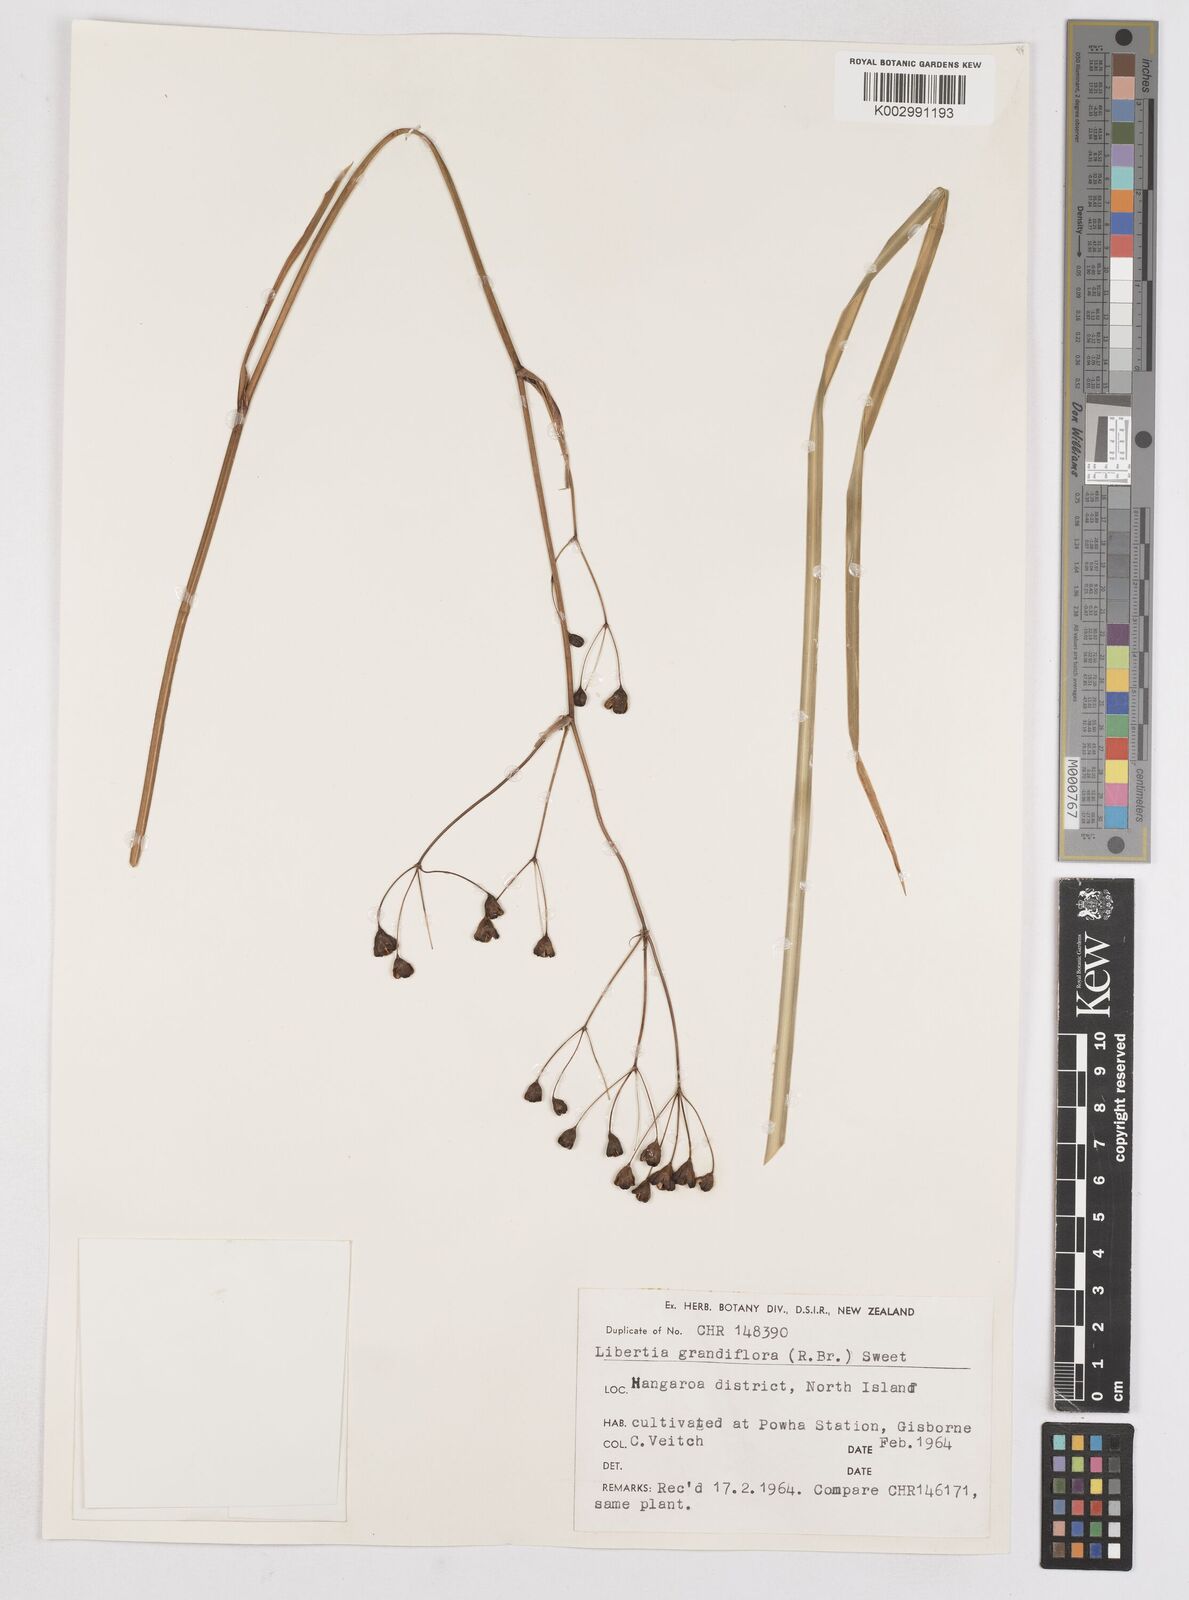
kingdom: Plantae
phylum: Tracheophyta
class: Liliopsida
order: Asparagales
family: Iridaceae
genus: Libertia
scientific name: Libertia grandiflora
